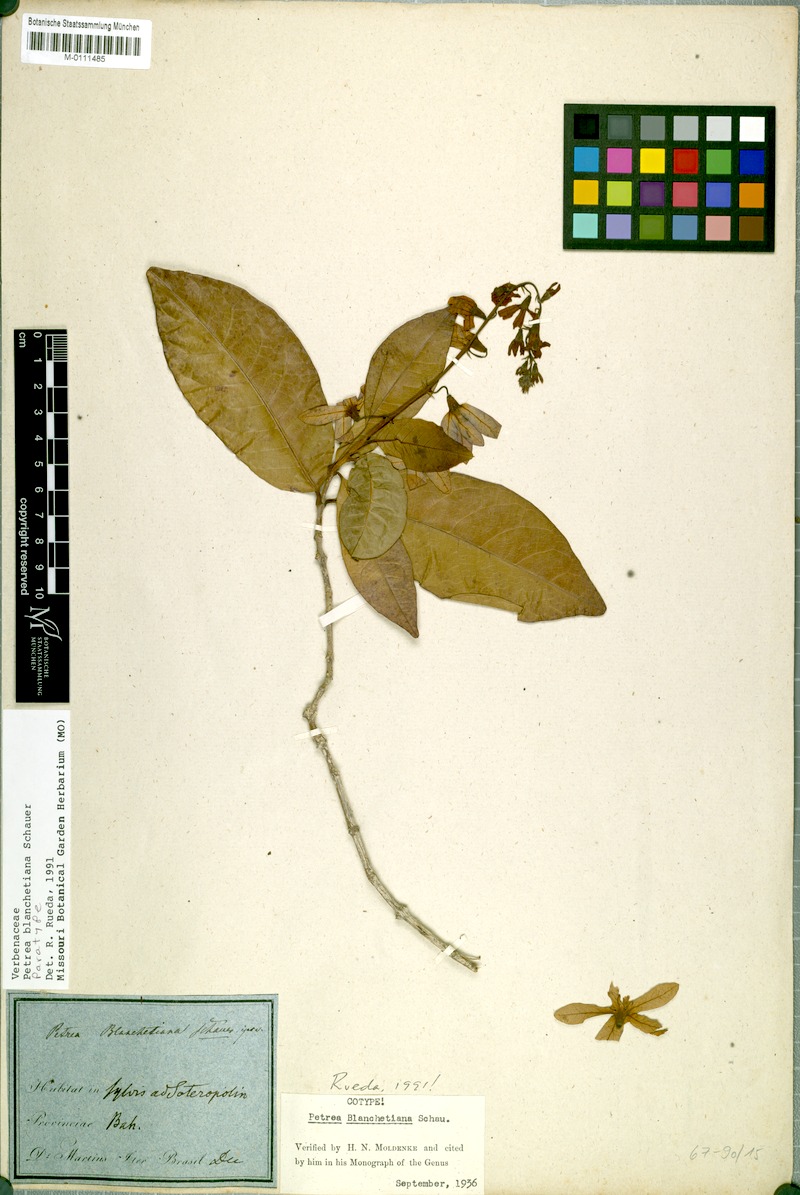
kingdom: Plantae
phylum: Tracheophyta
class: Magnoliopsida
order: Lamiales
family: Verbenaceae
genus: Petrea
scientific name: Petrea blanchetiana
